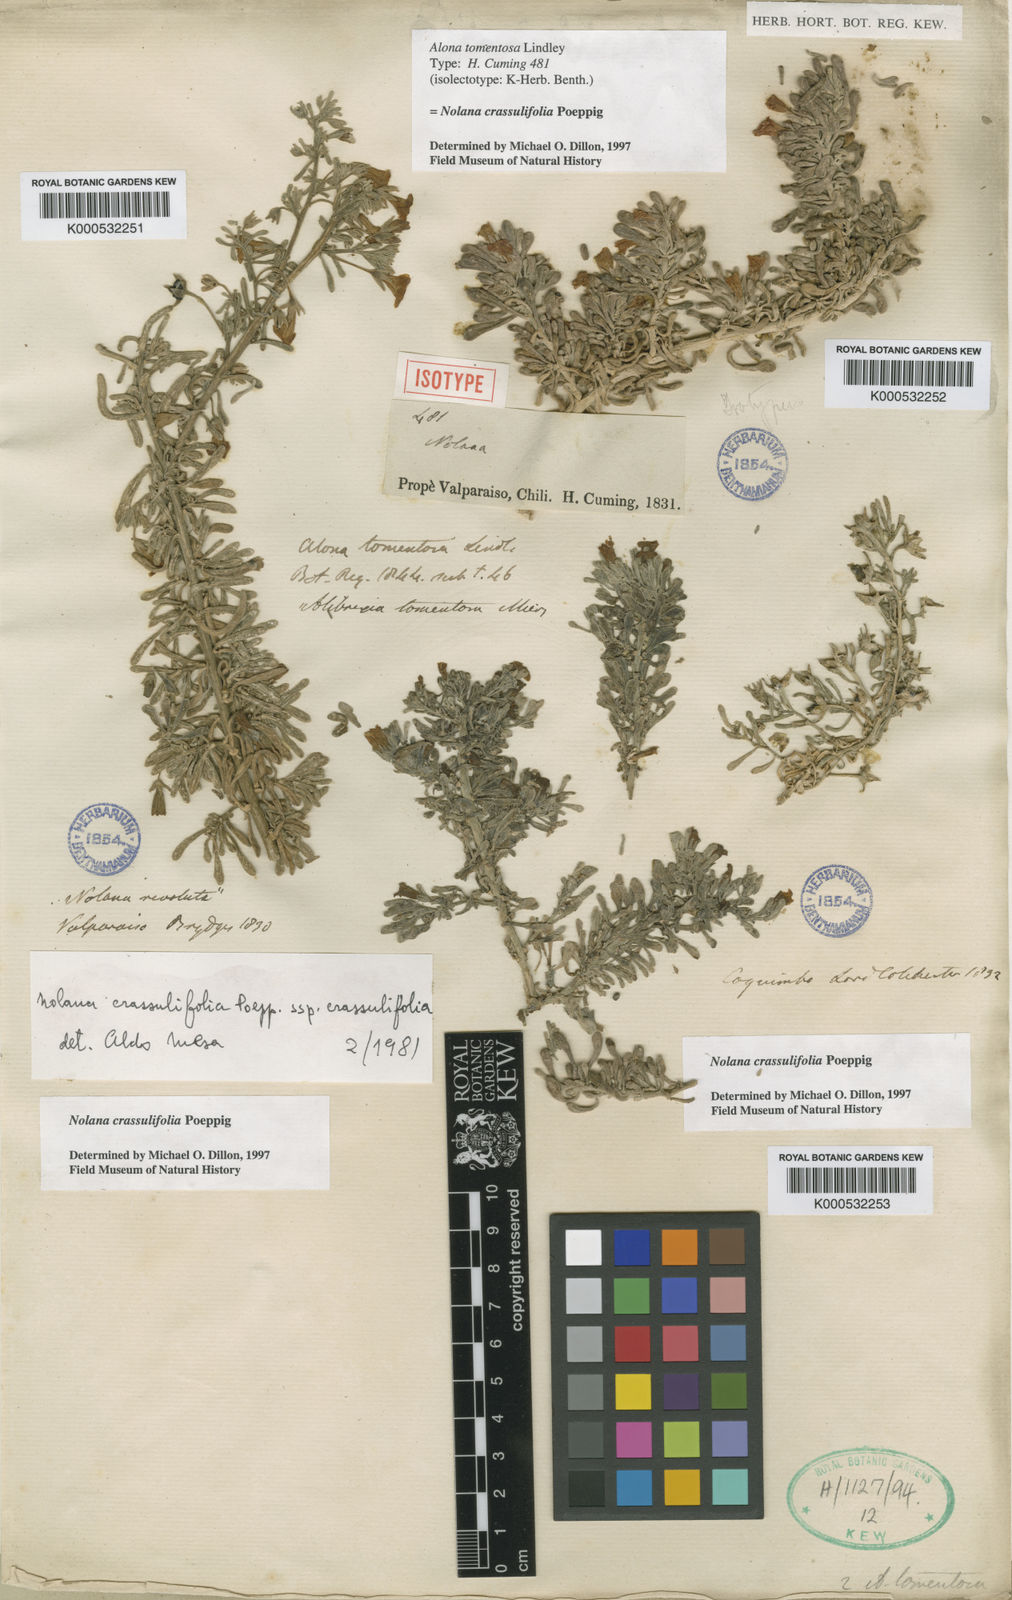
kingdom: Plantae
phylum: Tracheophyta
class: Magnoliopsida
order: Solanales
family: Solanaceae
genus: Nolana
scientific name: Nolana
